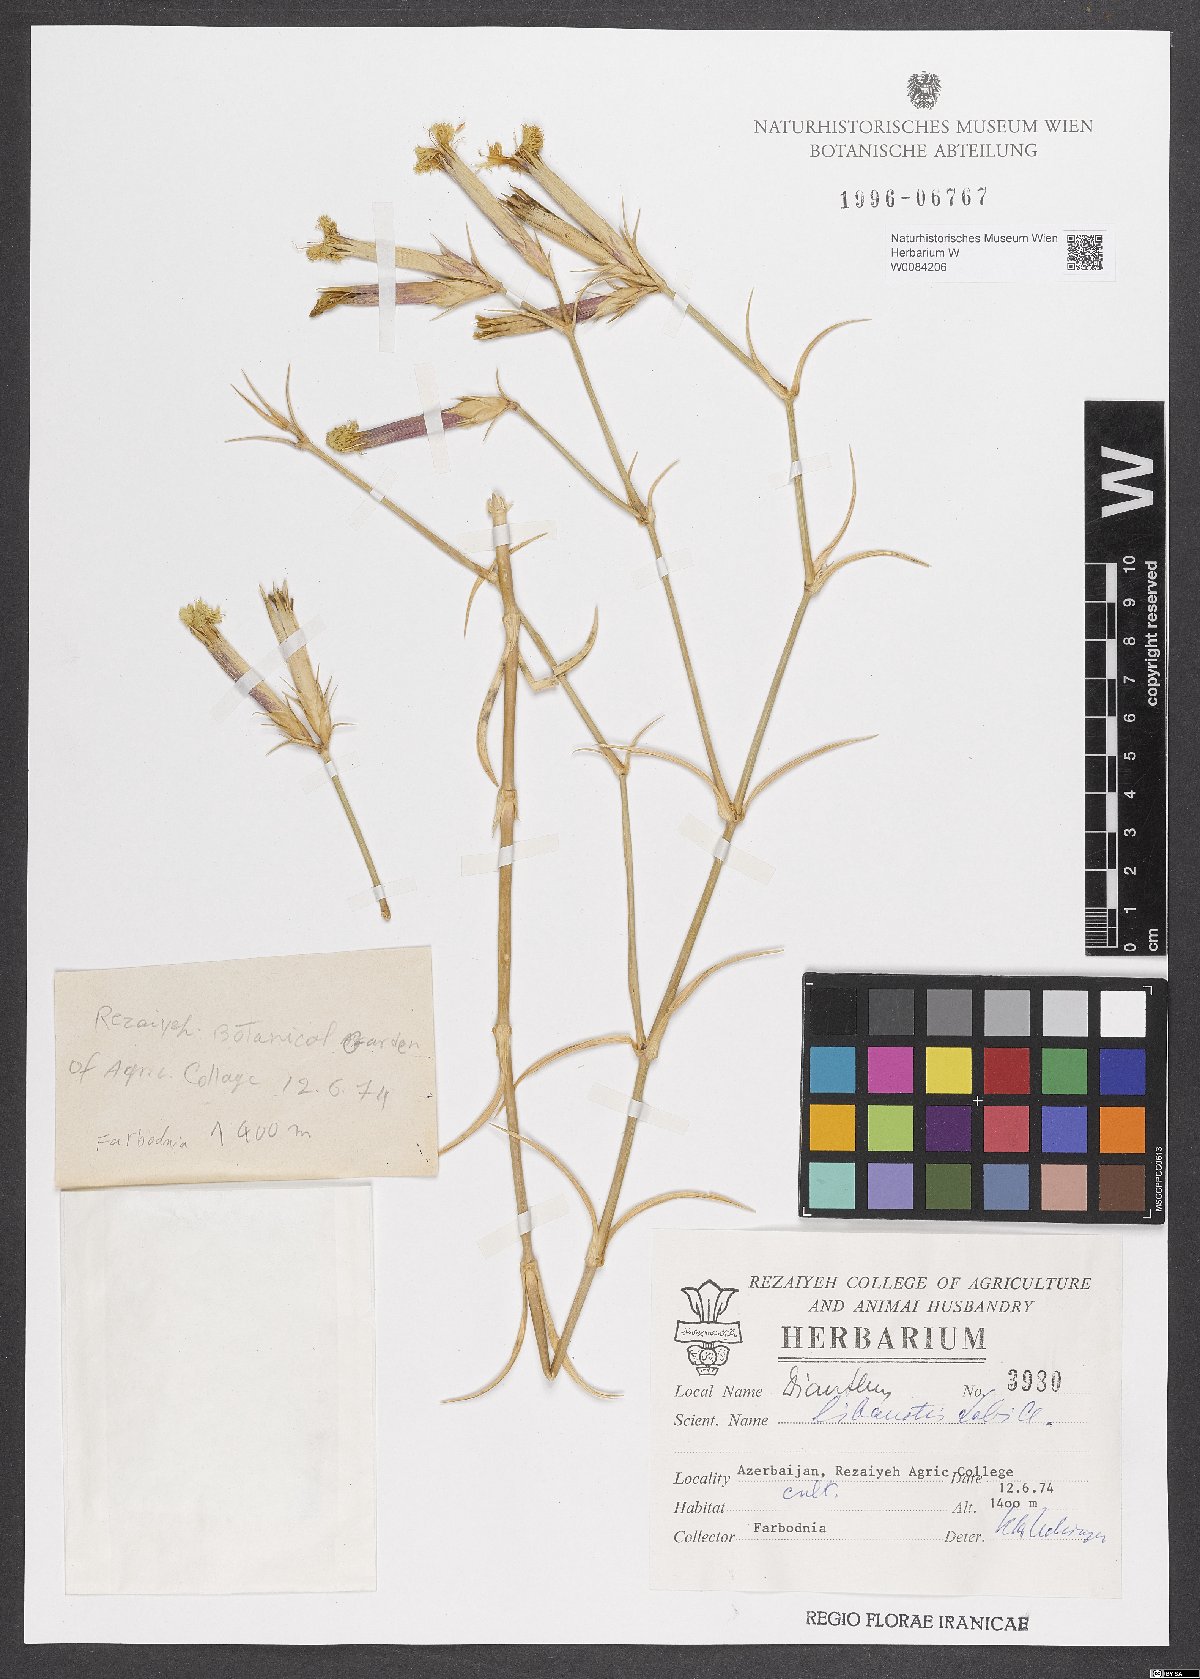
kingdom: Plantae
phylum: Tracheophyta
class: Magnoliopsida
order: Caryophyllales
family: Caryophyllaceae
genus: Dianthus
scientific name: Dianthus libanotis
